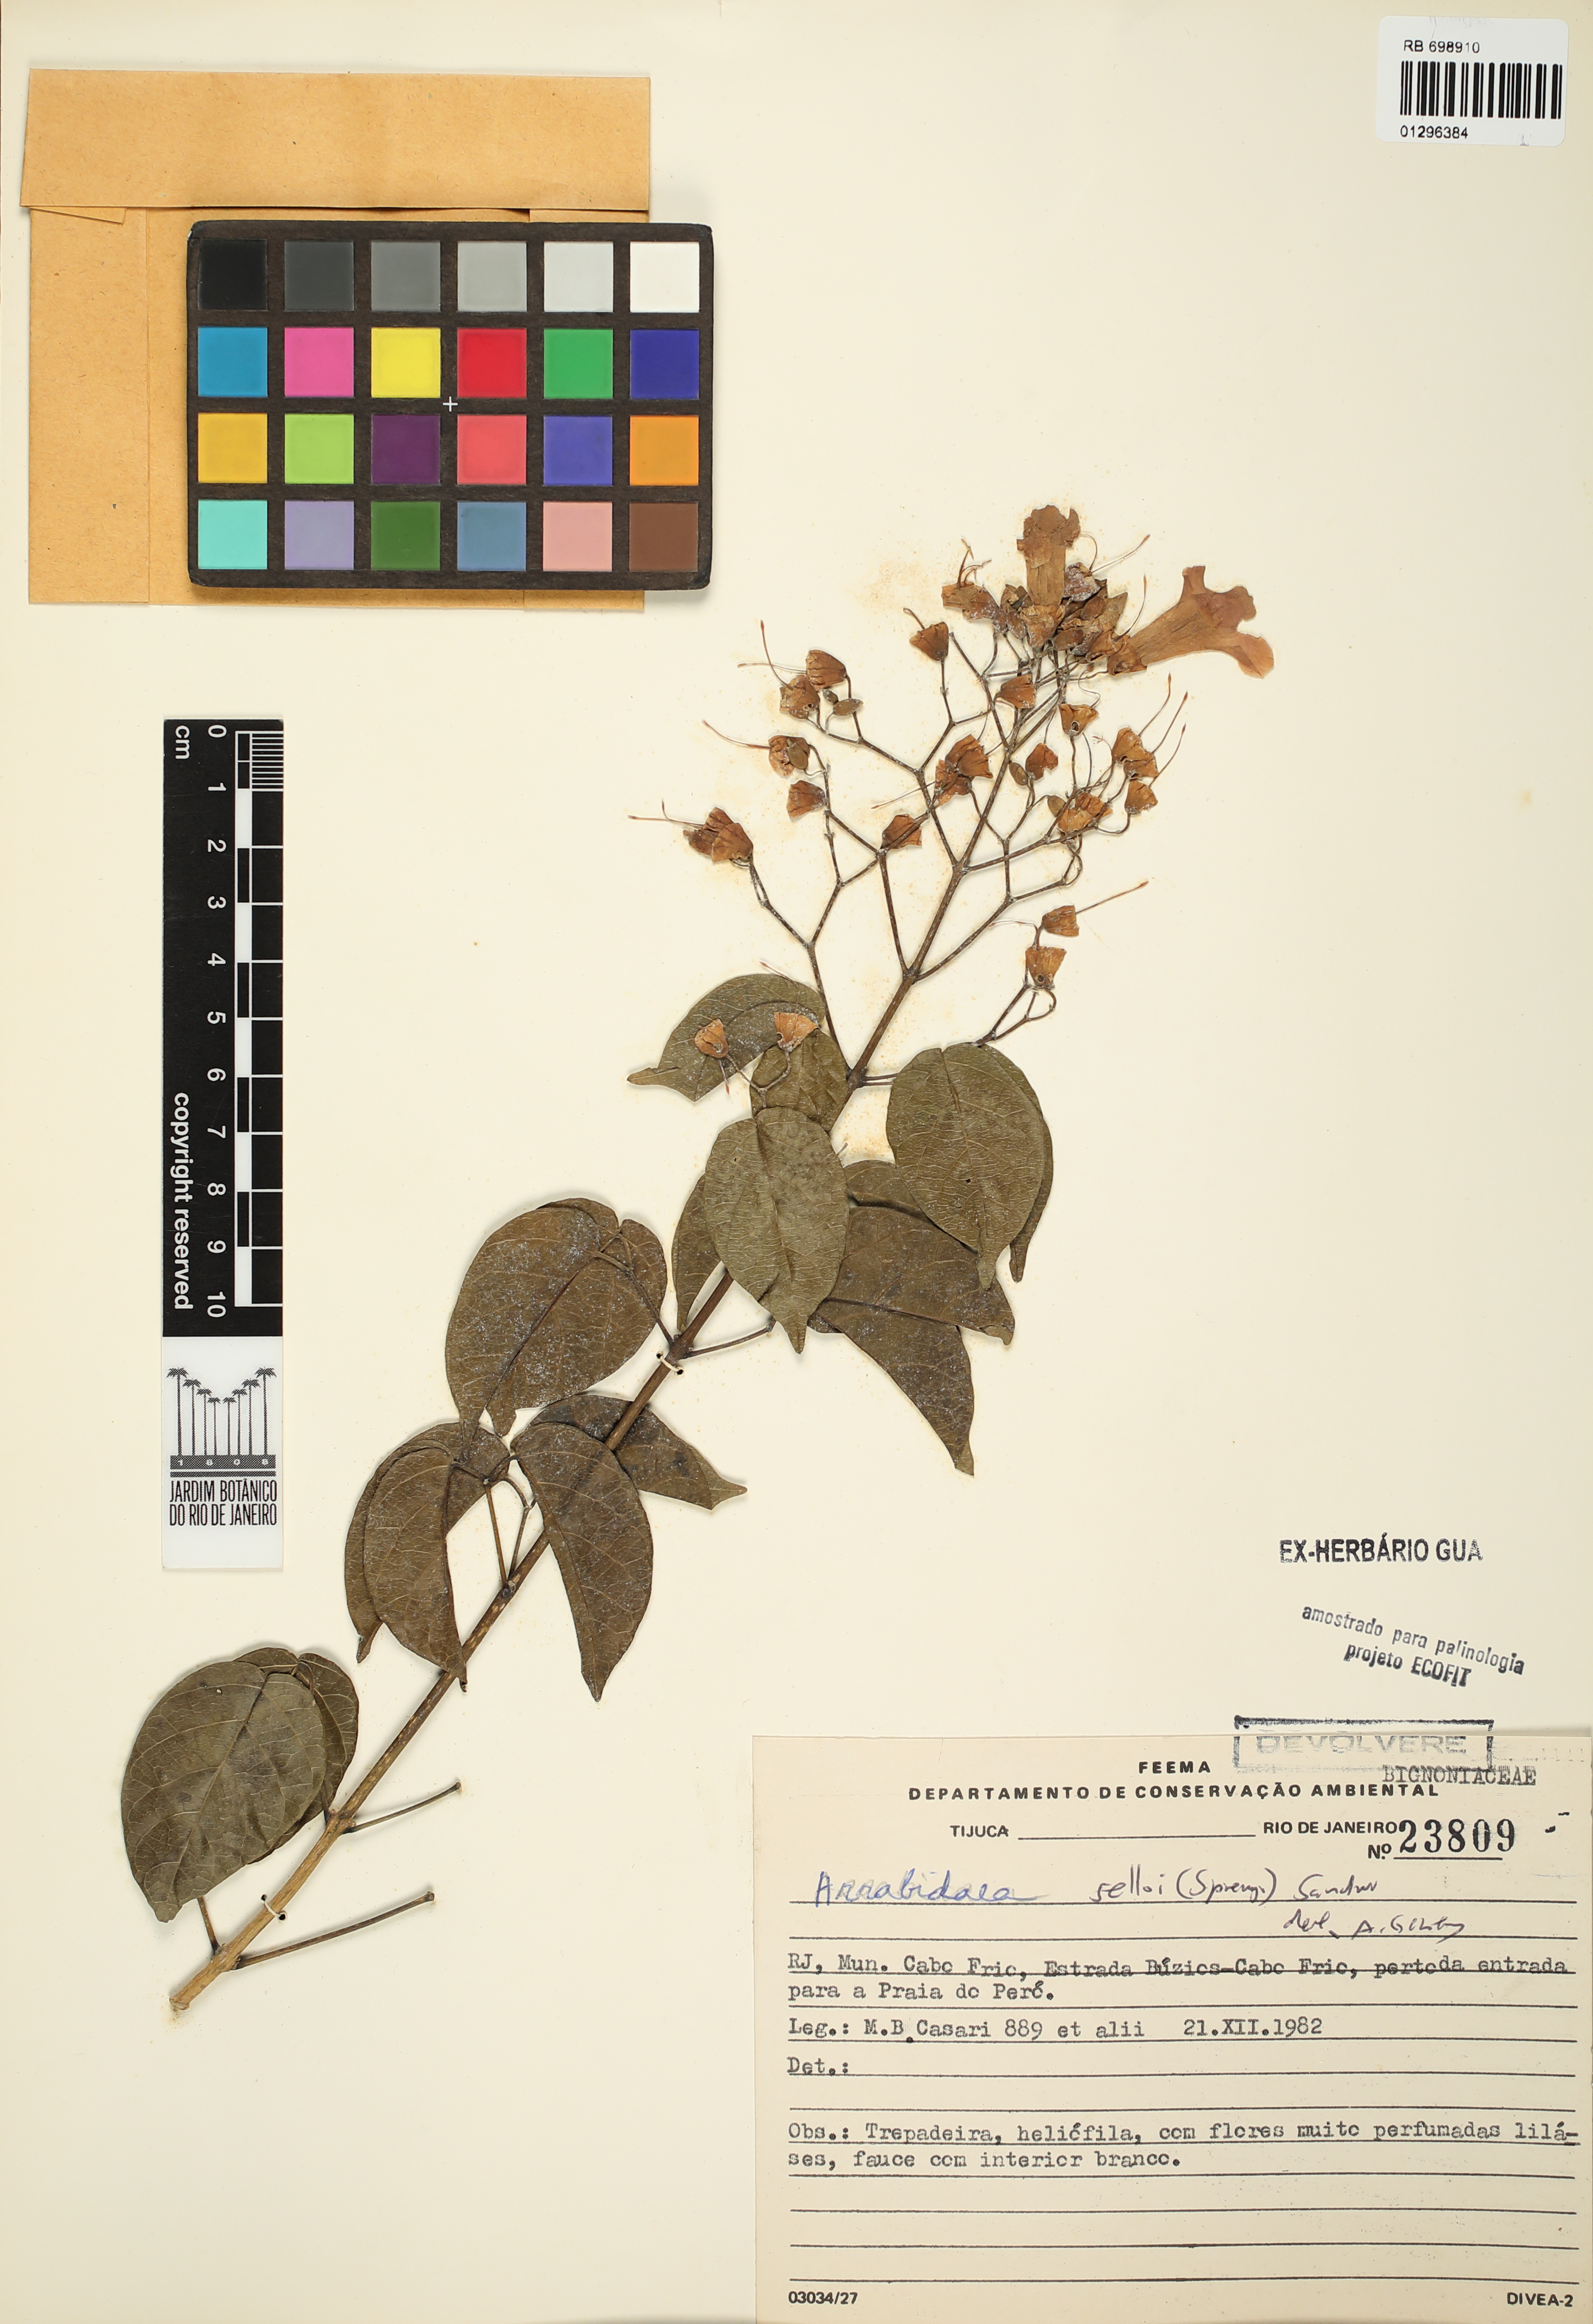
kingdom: Plantae
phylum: Tracheophyta
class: Magnoliopsida
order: Lamiales
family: Bignoniaceae
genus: Tanaecium
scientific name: Tanaecium selloi
